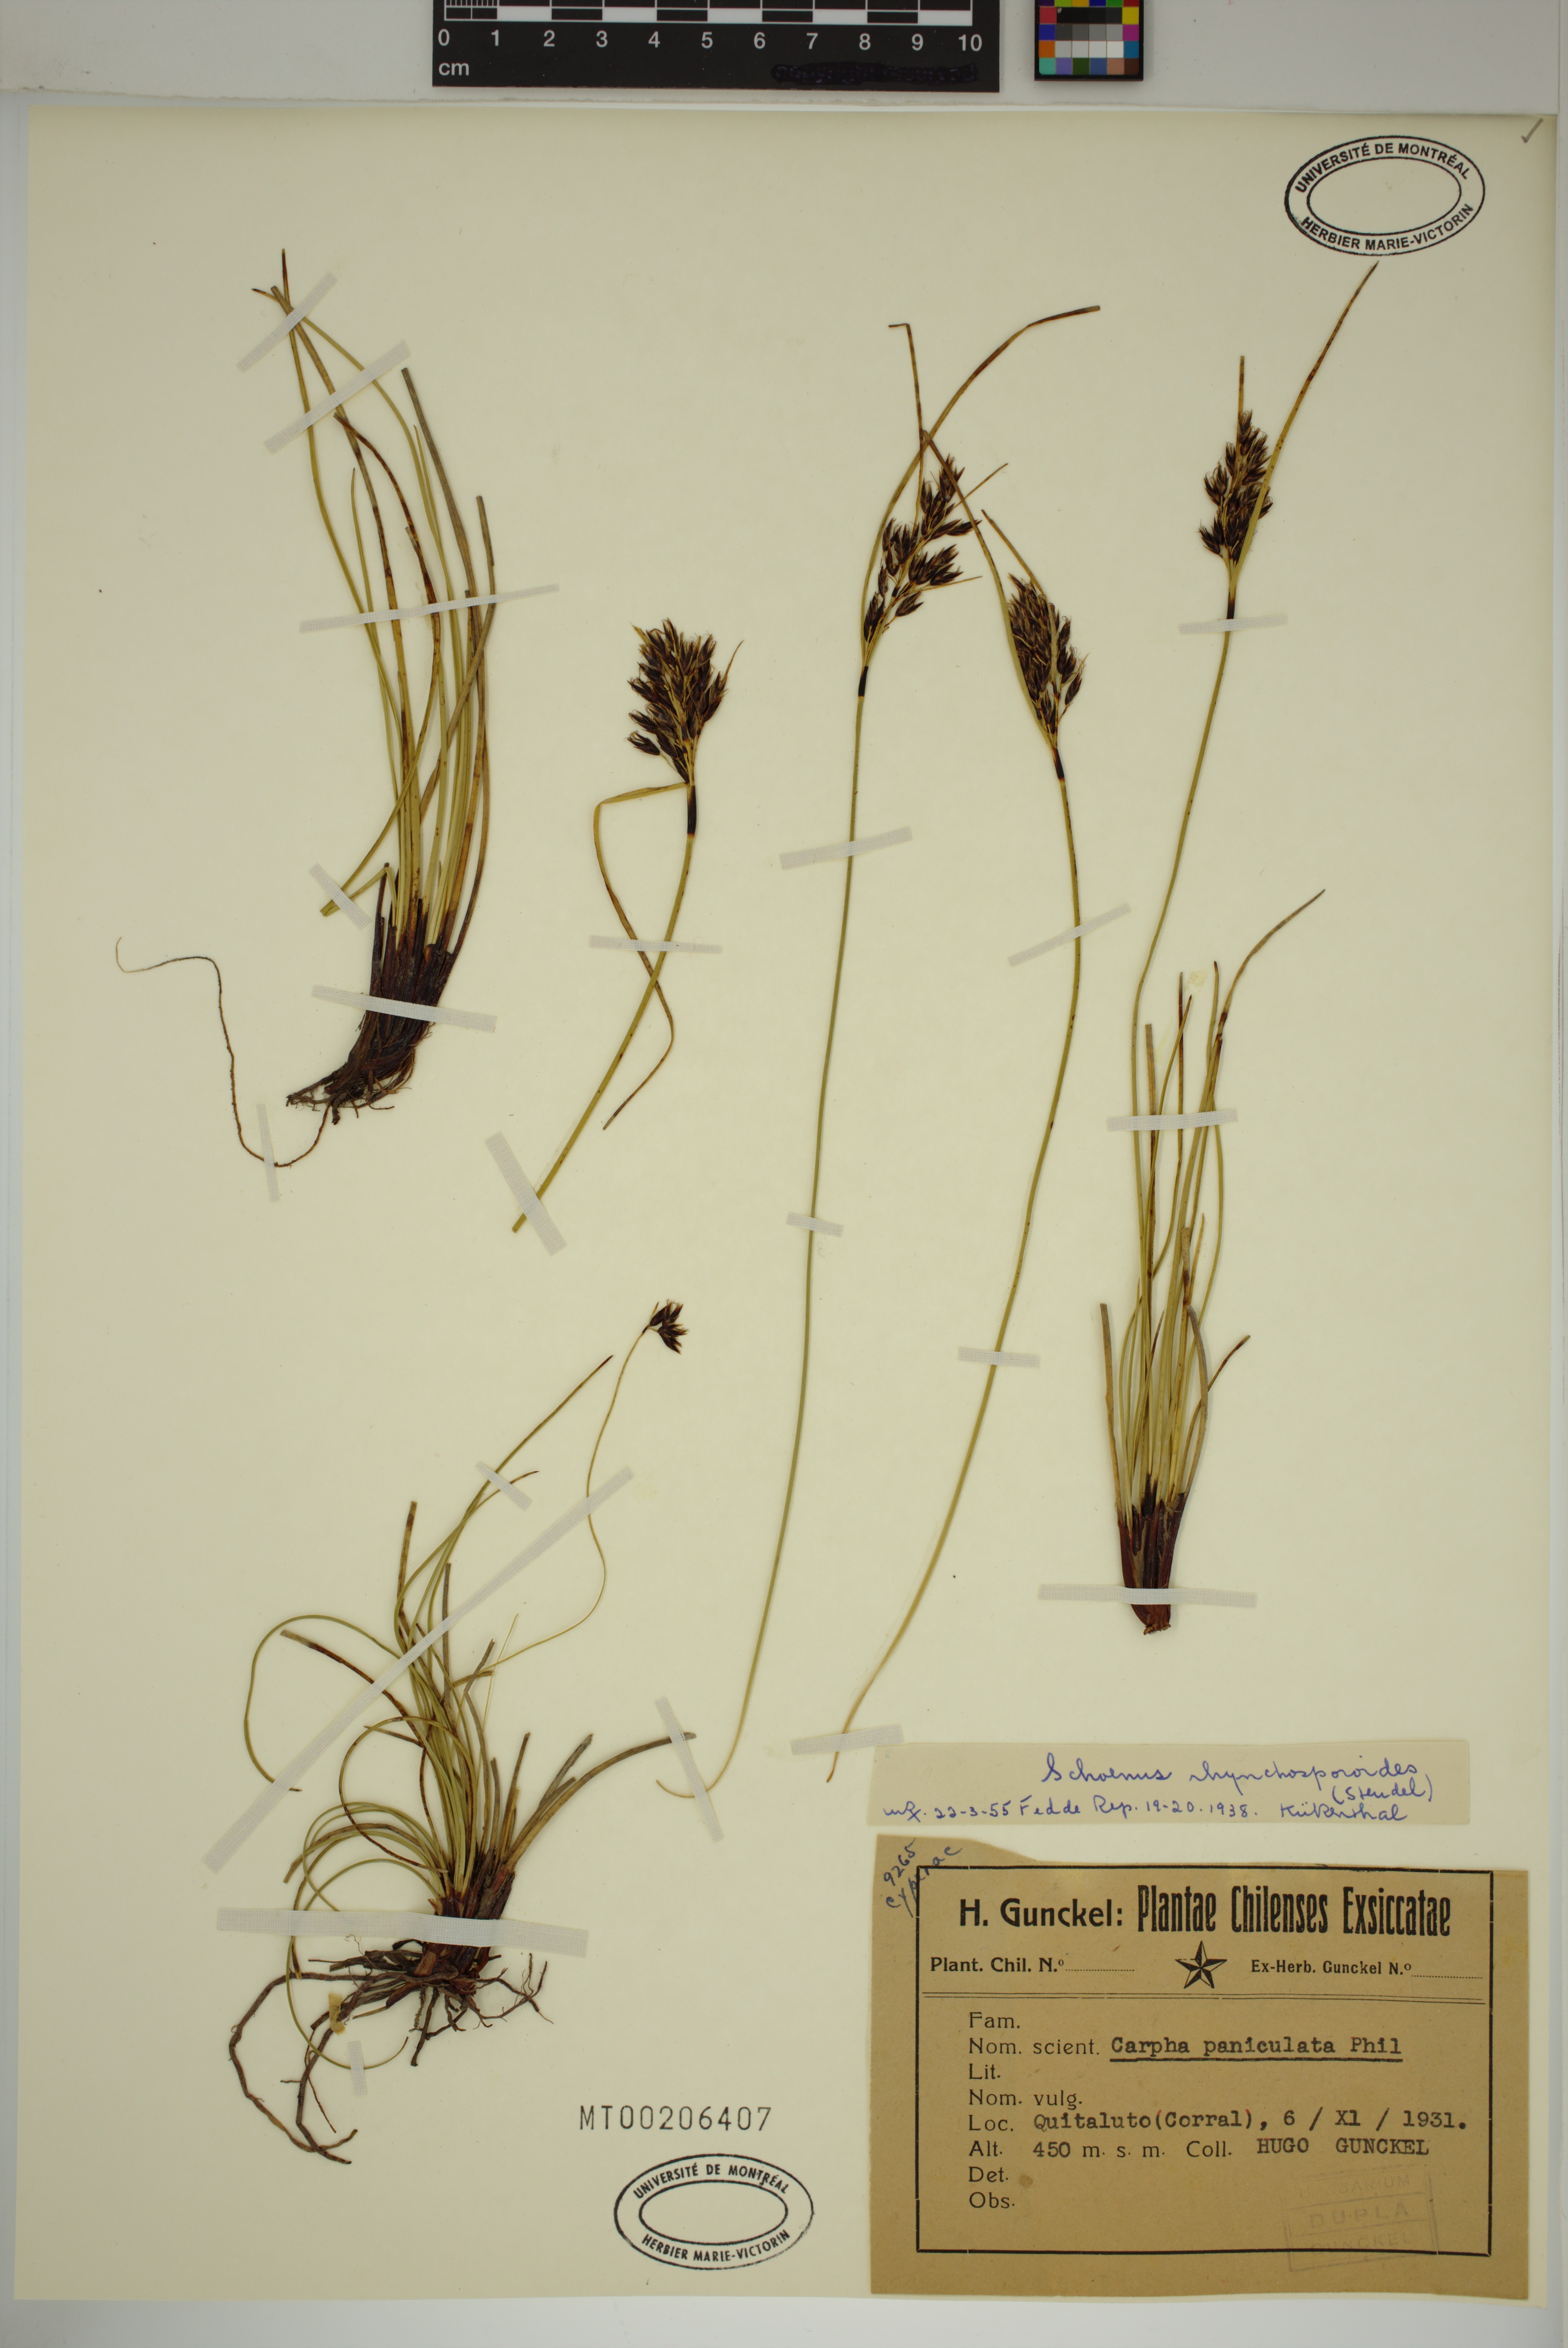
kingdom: Plantae
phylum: Tracheophyta
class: Liliopsida
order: Poales
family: Cyperaceae
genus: Schoenus
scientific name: Schoenus rhynchosporoides
